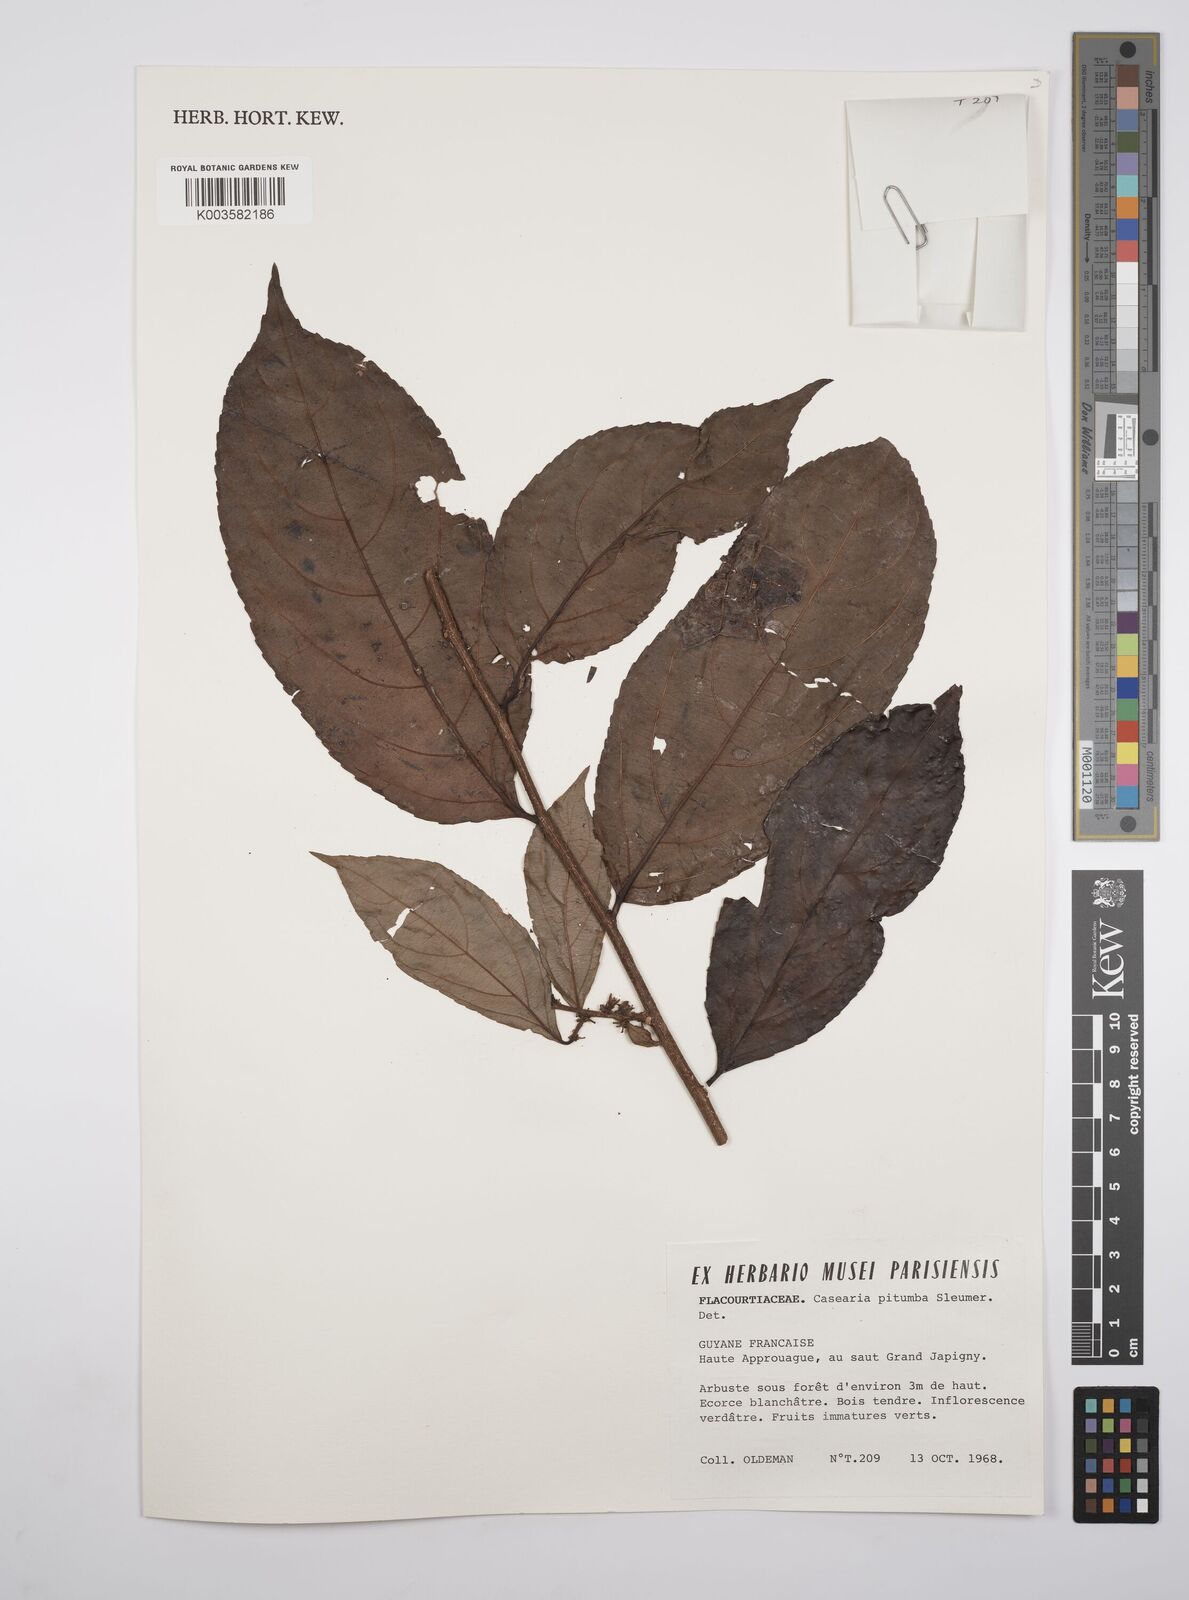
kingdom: Plantae
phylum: Tracheophyta
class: Magnoliopsida
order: Malpighiales
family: Salicaceae
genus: Casearia
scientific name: Casearia pitumba
